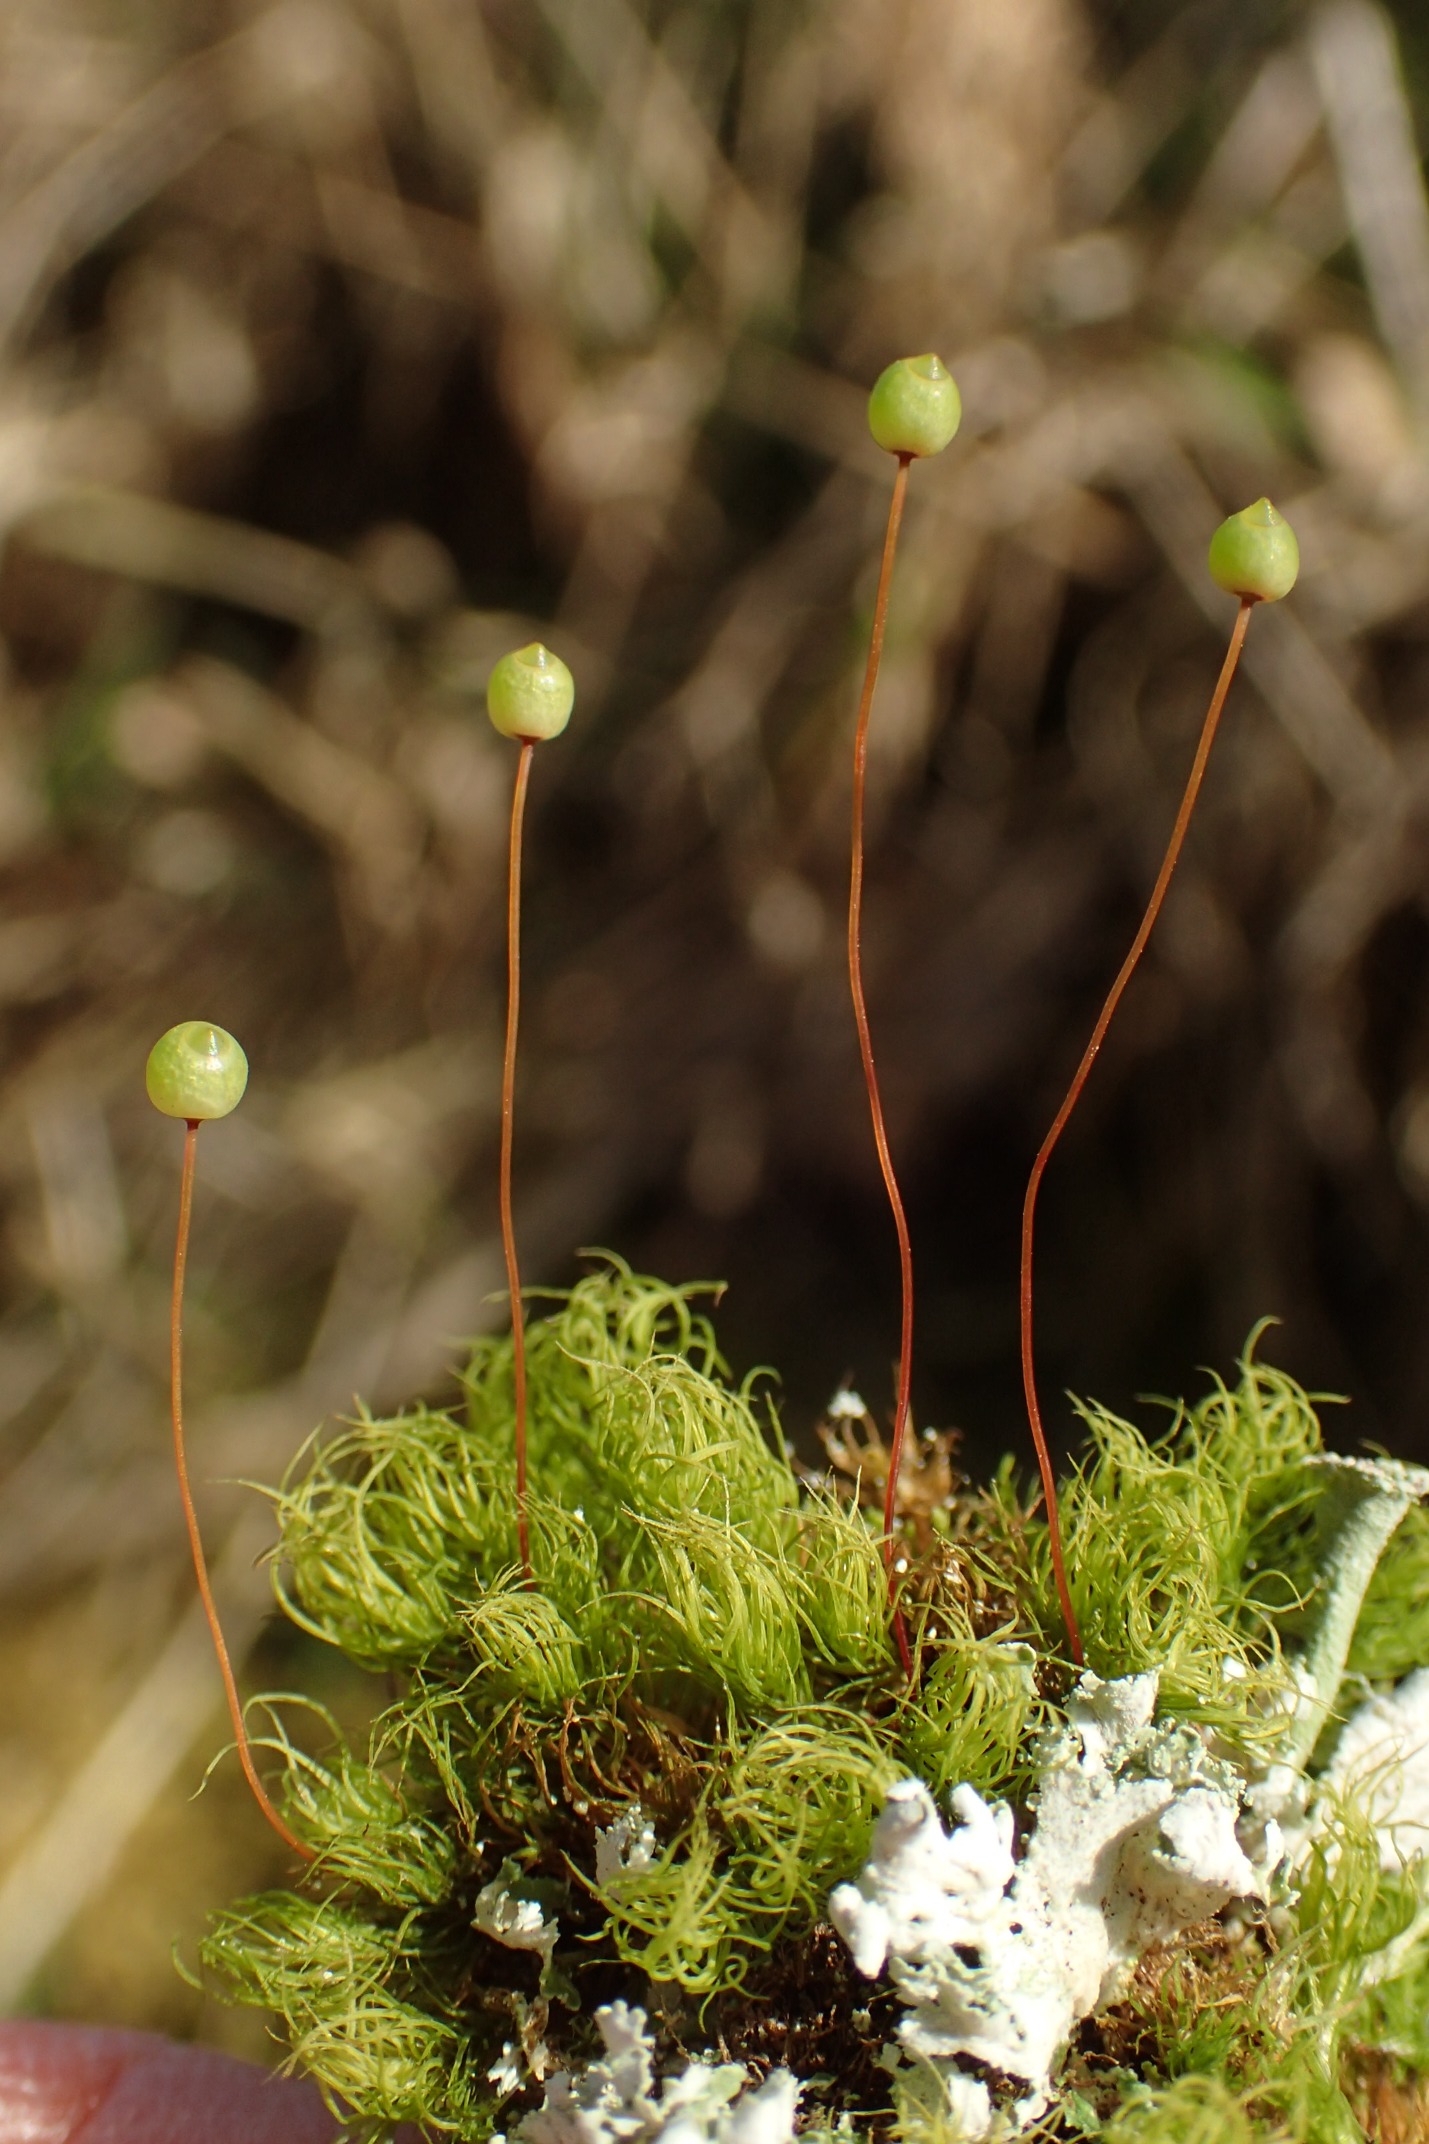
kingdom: Plantae
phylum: Bryophyta
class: Bryopsida
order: Bartramiales
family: Bartramiaceae
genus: Bartramia
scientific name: Bartramia pomiformis
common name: Gulgrøn kuglekapsel
